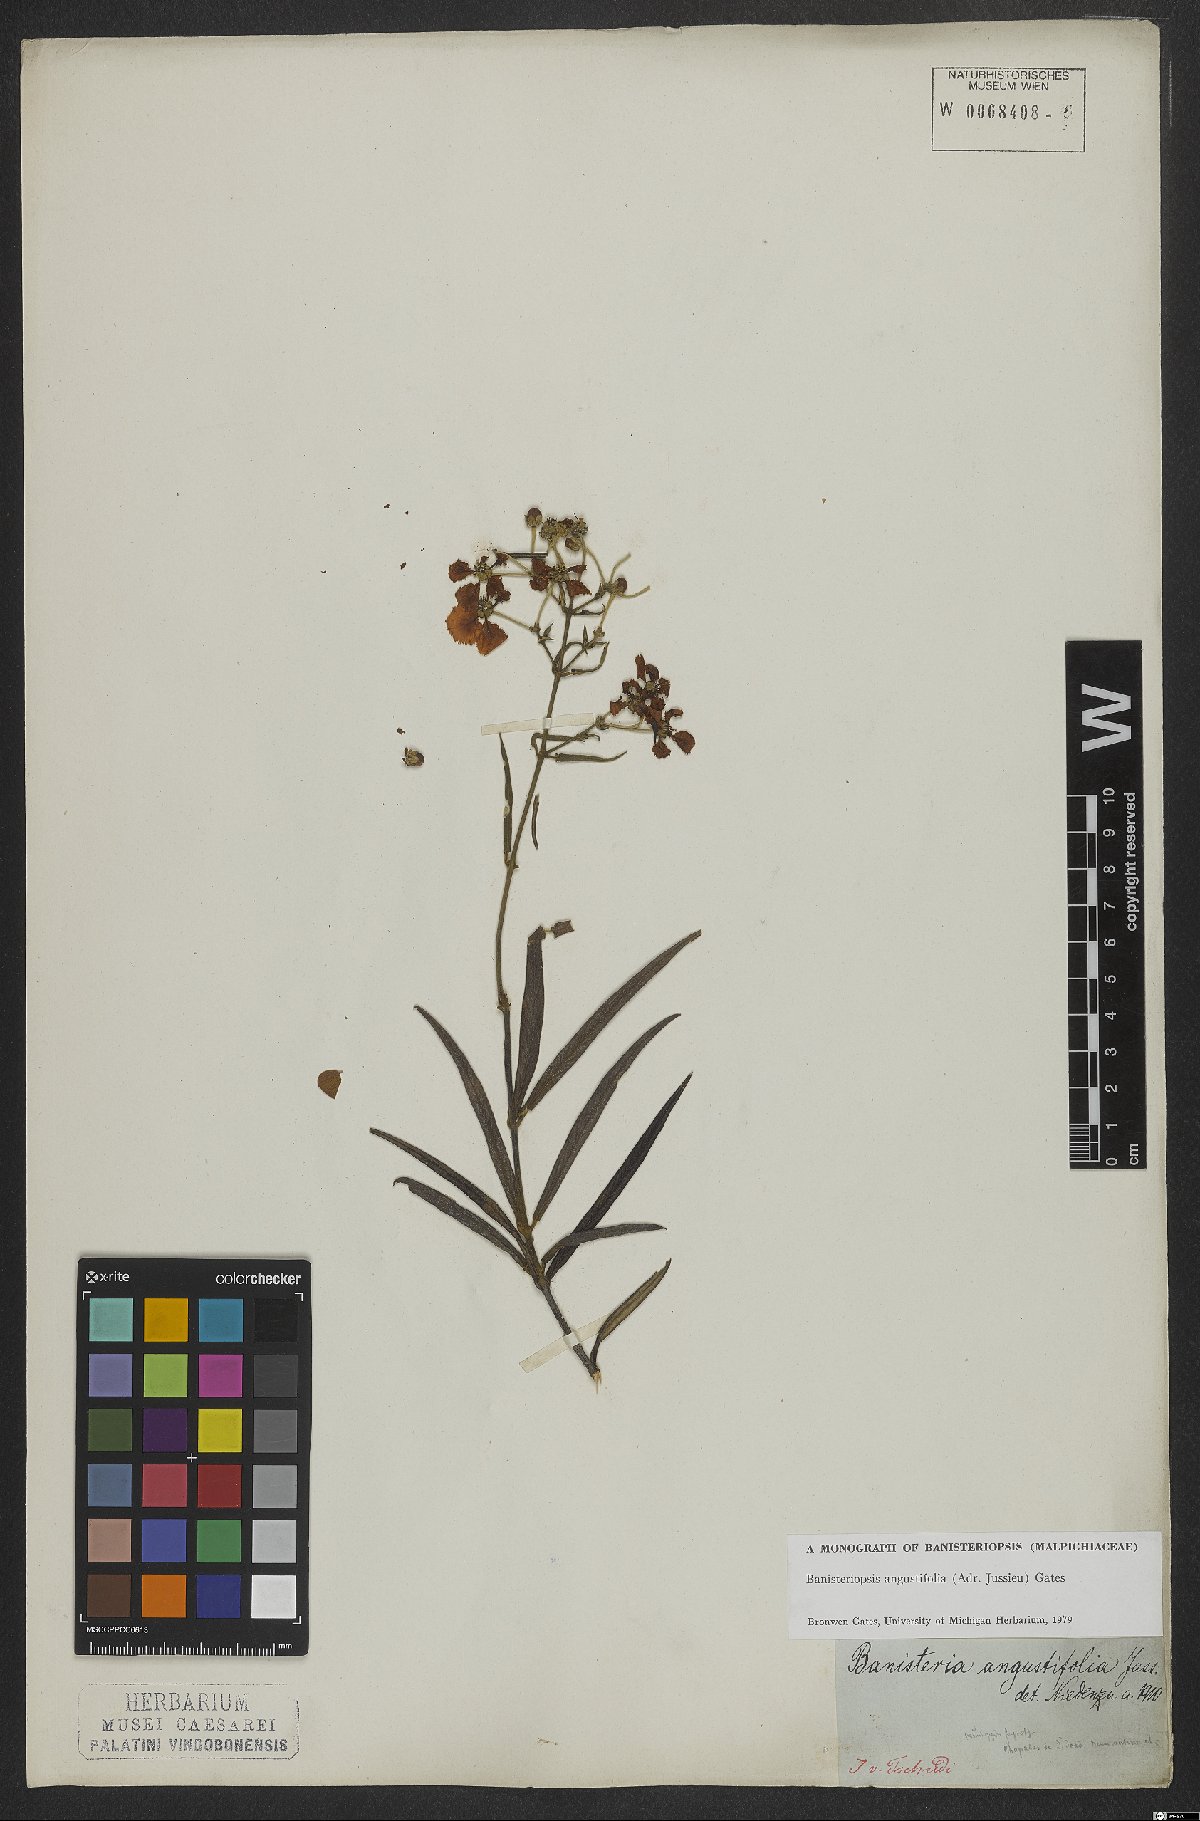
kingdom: Plantae
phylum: Tracheophyta
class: Magnoliopsida
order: Malpighiales
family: Malpighiaceae
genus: Banisteriopsis
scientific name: Banisteriopsis angustifolia
